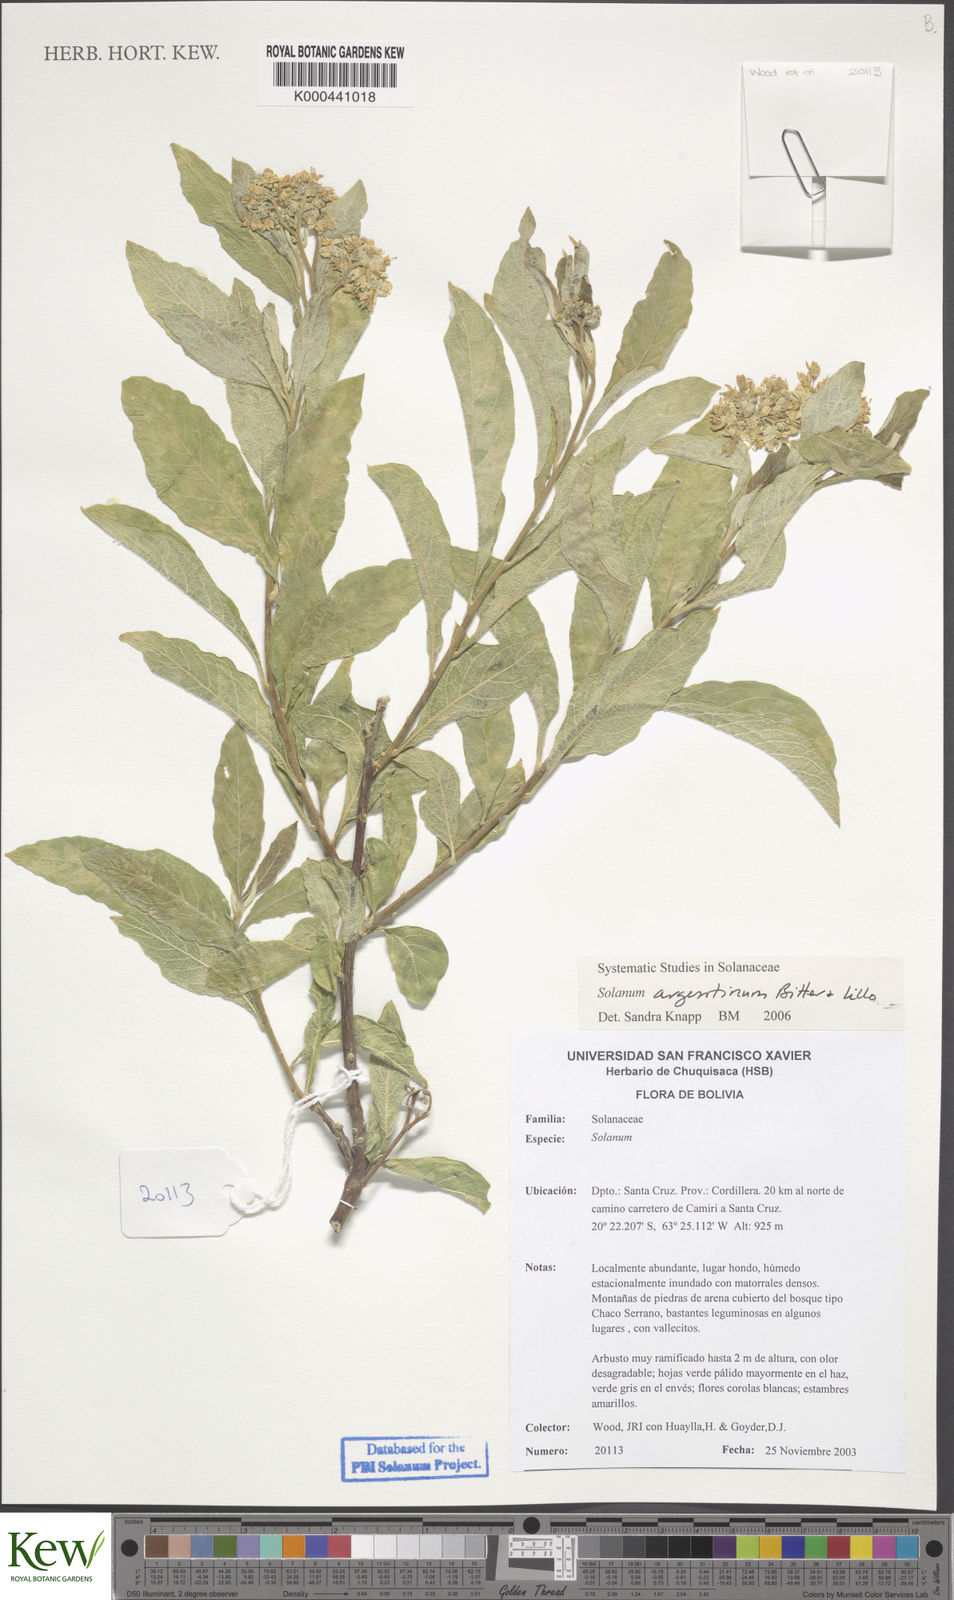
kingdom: Plantae
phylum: Tracheophyta
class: Magnoliopsida
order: Solanales
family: Solanaceae
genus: Solanum
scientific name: Solanum argentinum
